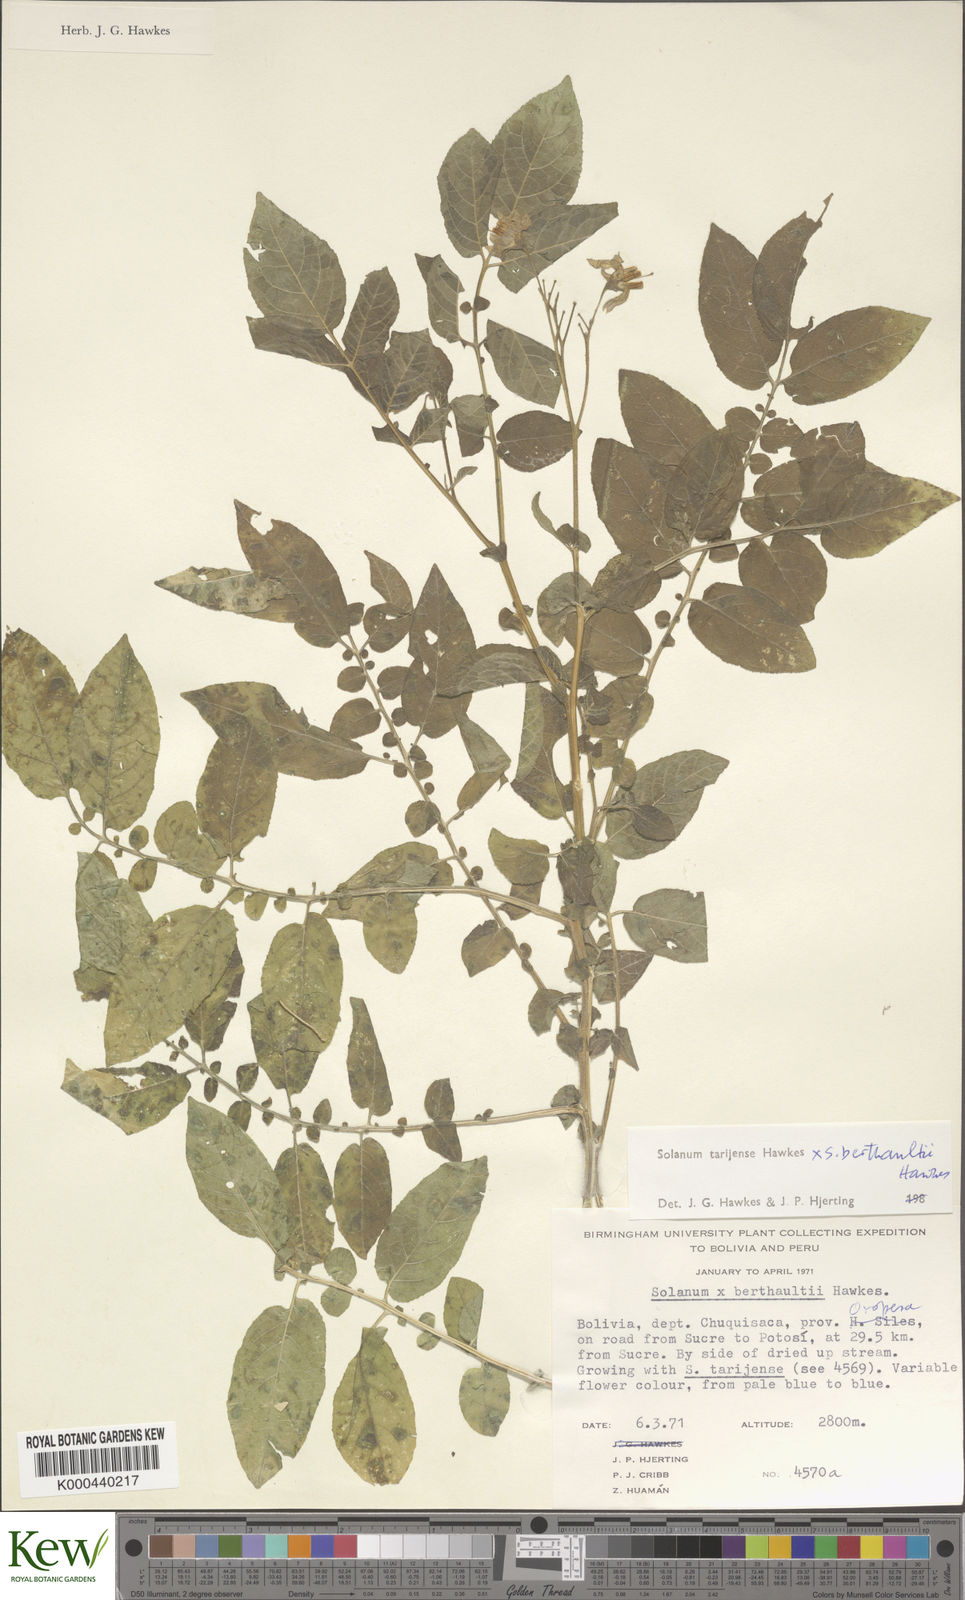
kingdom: Plantae
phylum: Tracheophyta
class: Magnoliopsida
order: Solanales
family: Solanaceae
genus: Solanum
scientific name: Solanum tarijense
